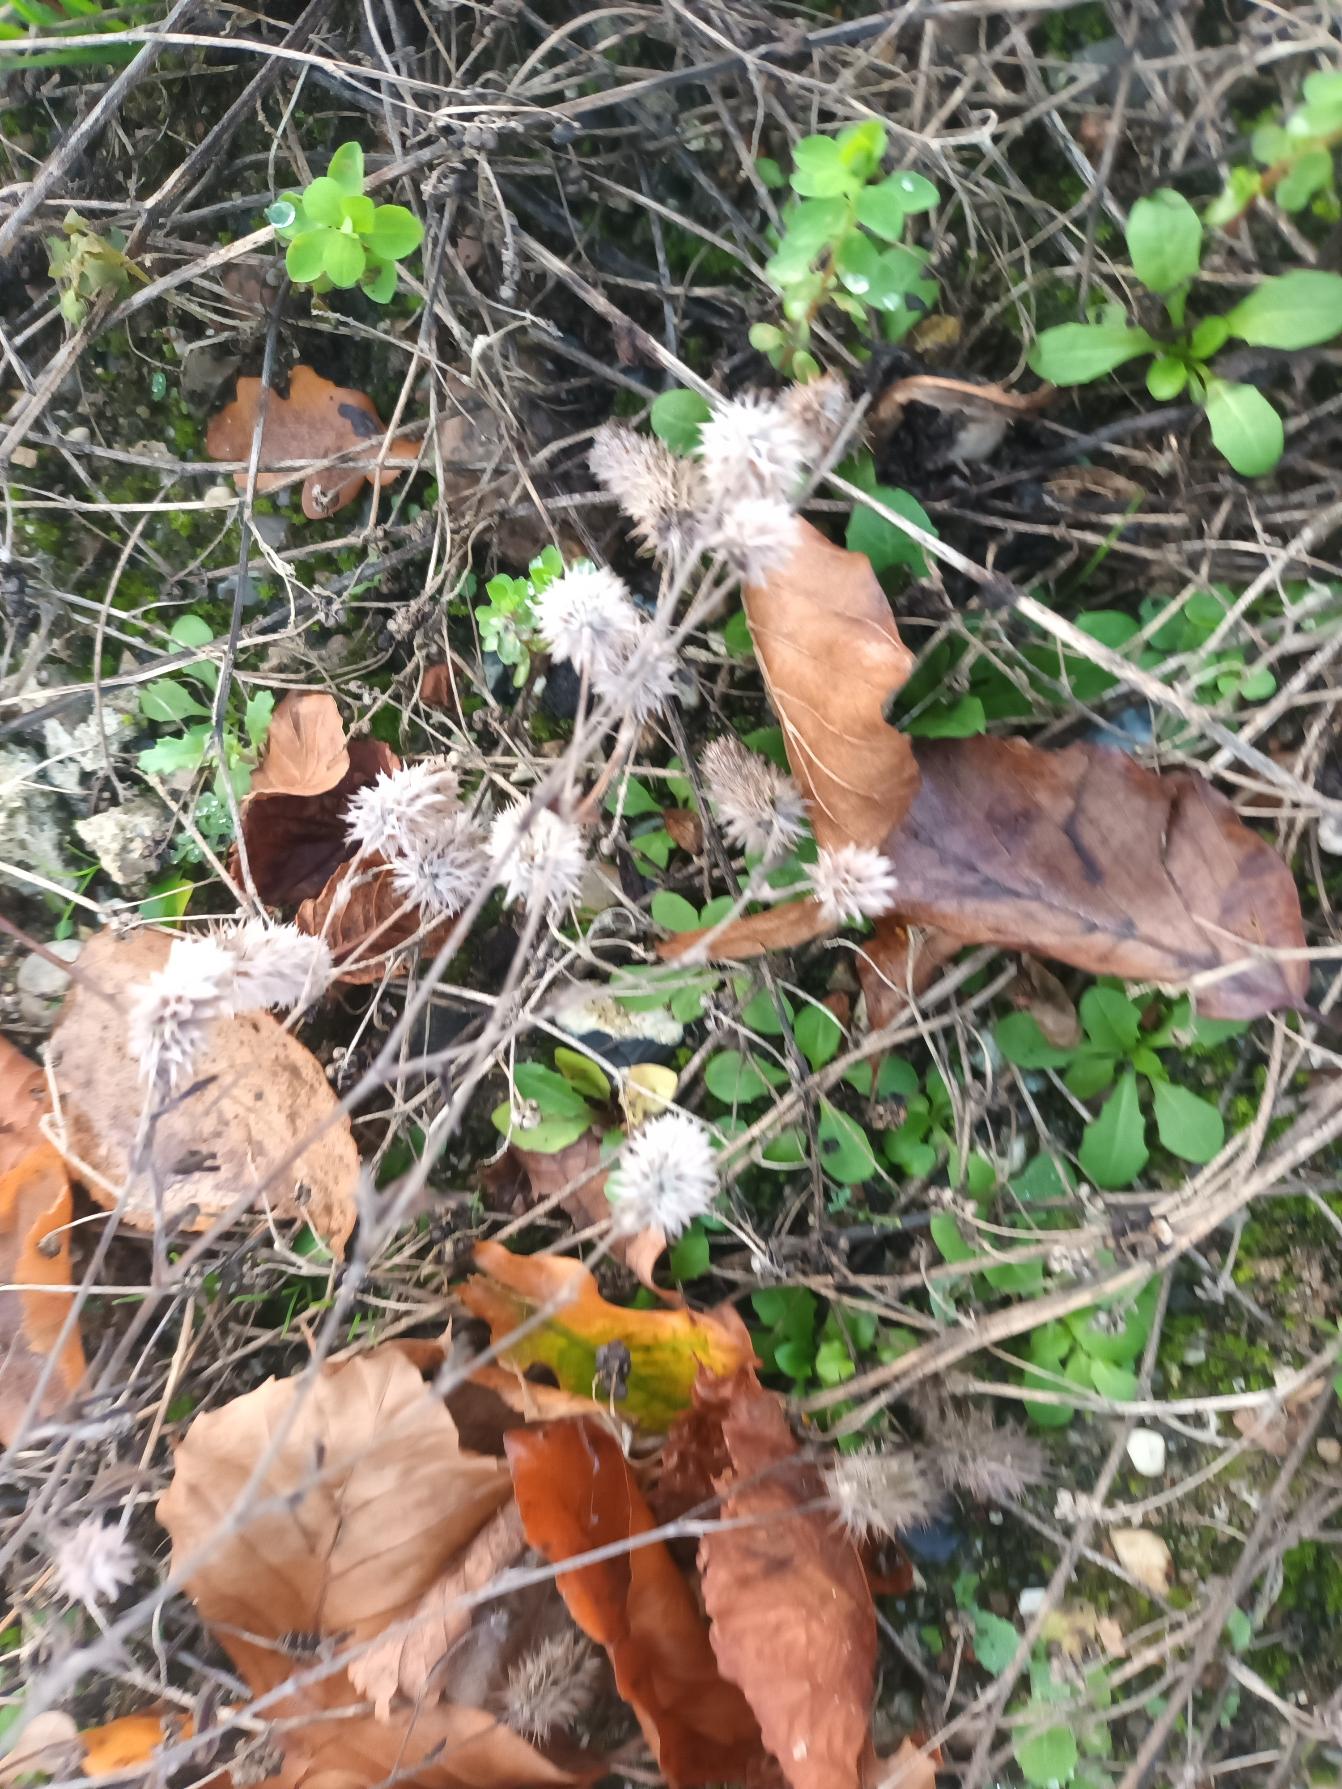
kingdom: Plantae
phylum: Tracheophyta
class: Magnoliopsida
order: Fabales
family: Fabaceae
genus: Trifolium
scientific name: Trifolium arvense
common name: Hare-kløver
